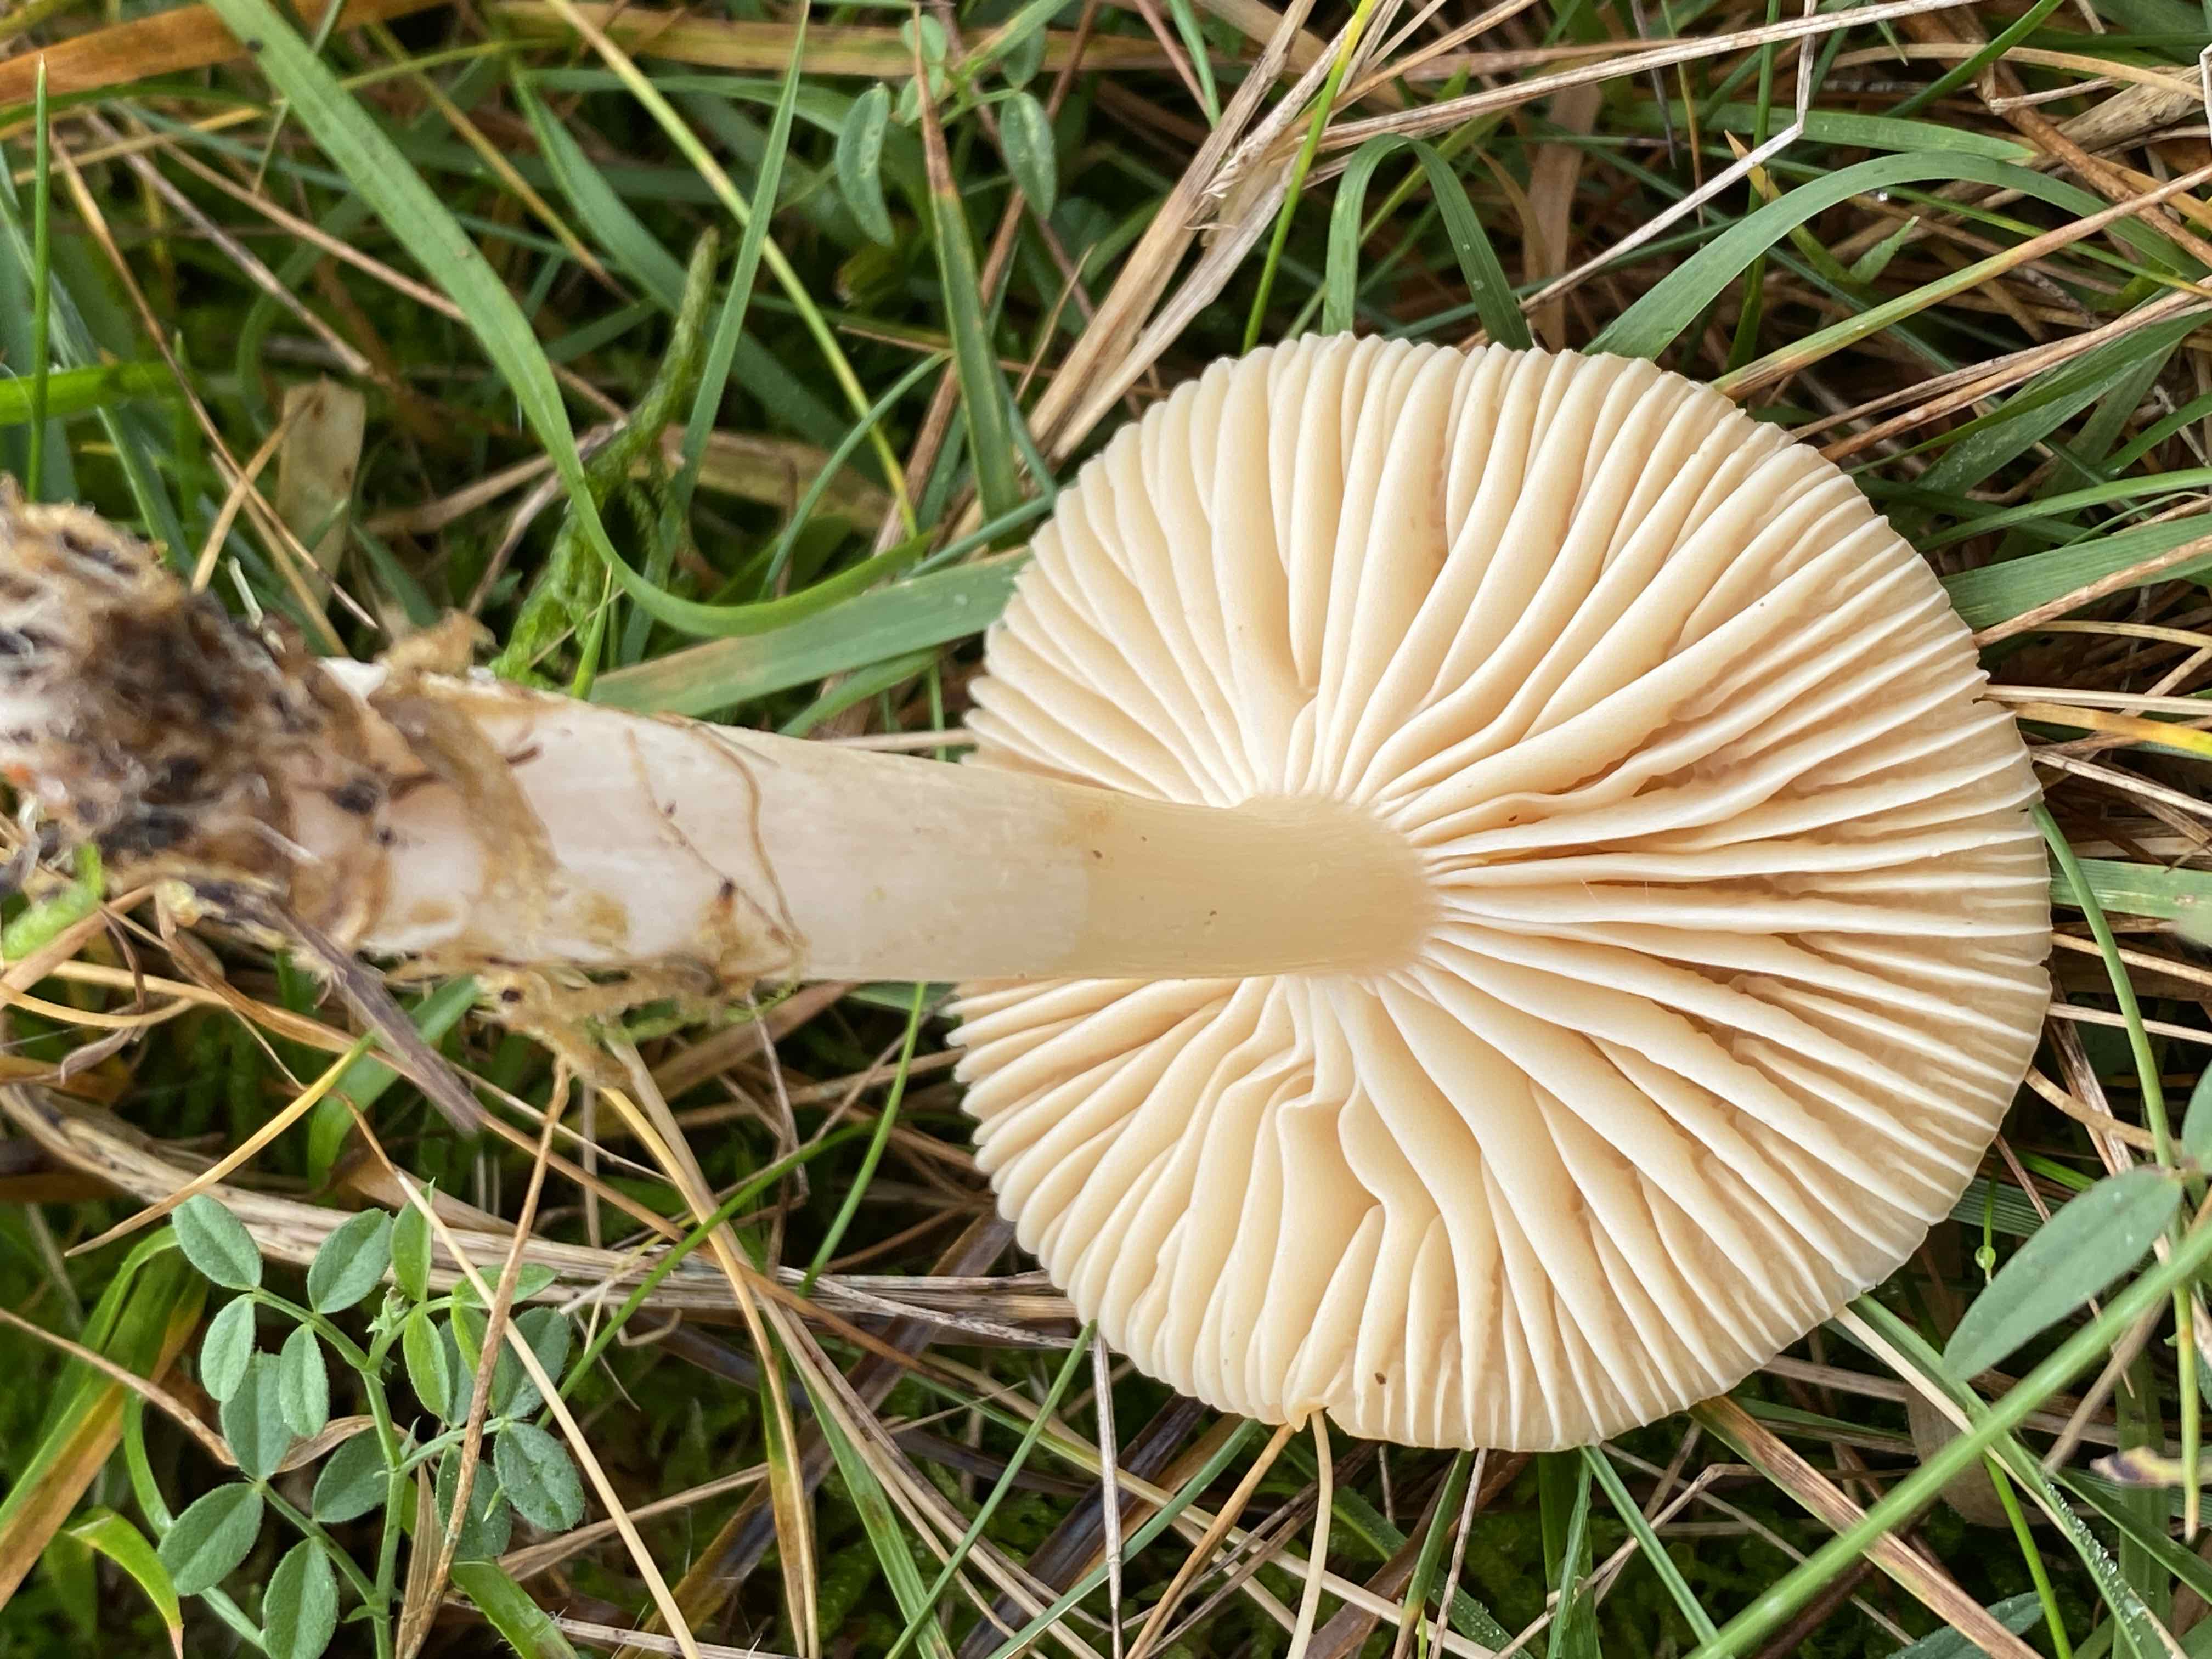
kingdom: Fungi
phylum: Basidiomycota
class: Agaricomycetes
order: Agaricales
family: Hygrophoraceae
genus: Cuphophyllus
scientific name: Cuphophyllus pratensis
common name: eng-vokshat
